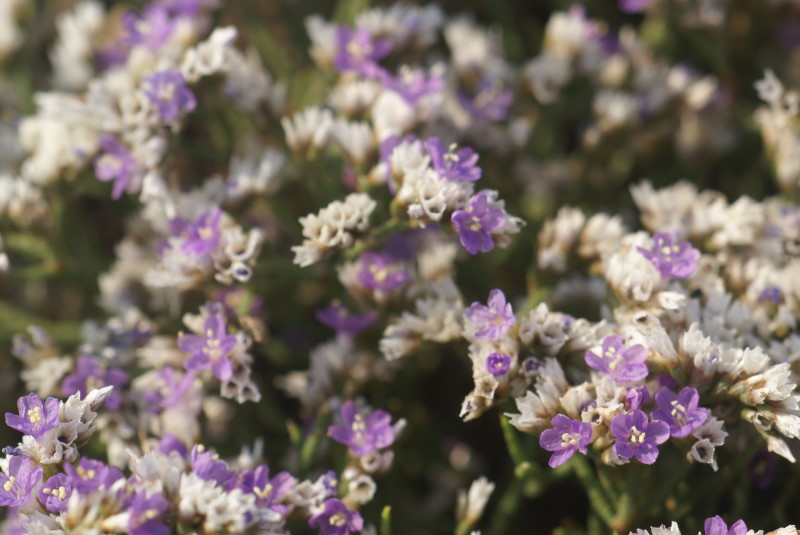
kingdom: Plantae
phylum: Tracheophyta
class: Magnoliopsida
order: Caryophyllales
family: Plumbaginaceae
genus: Goniolimon
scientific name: Goniolimon tataricum
